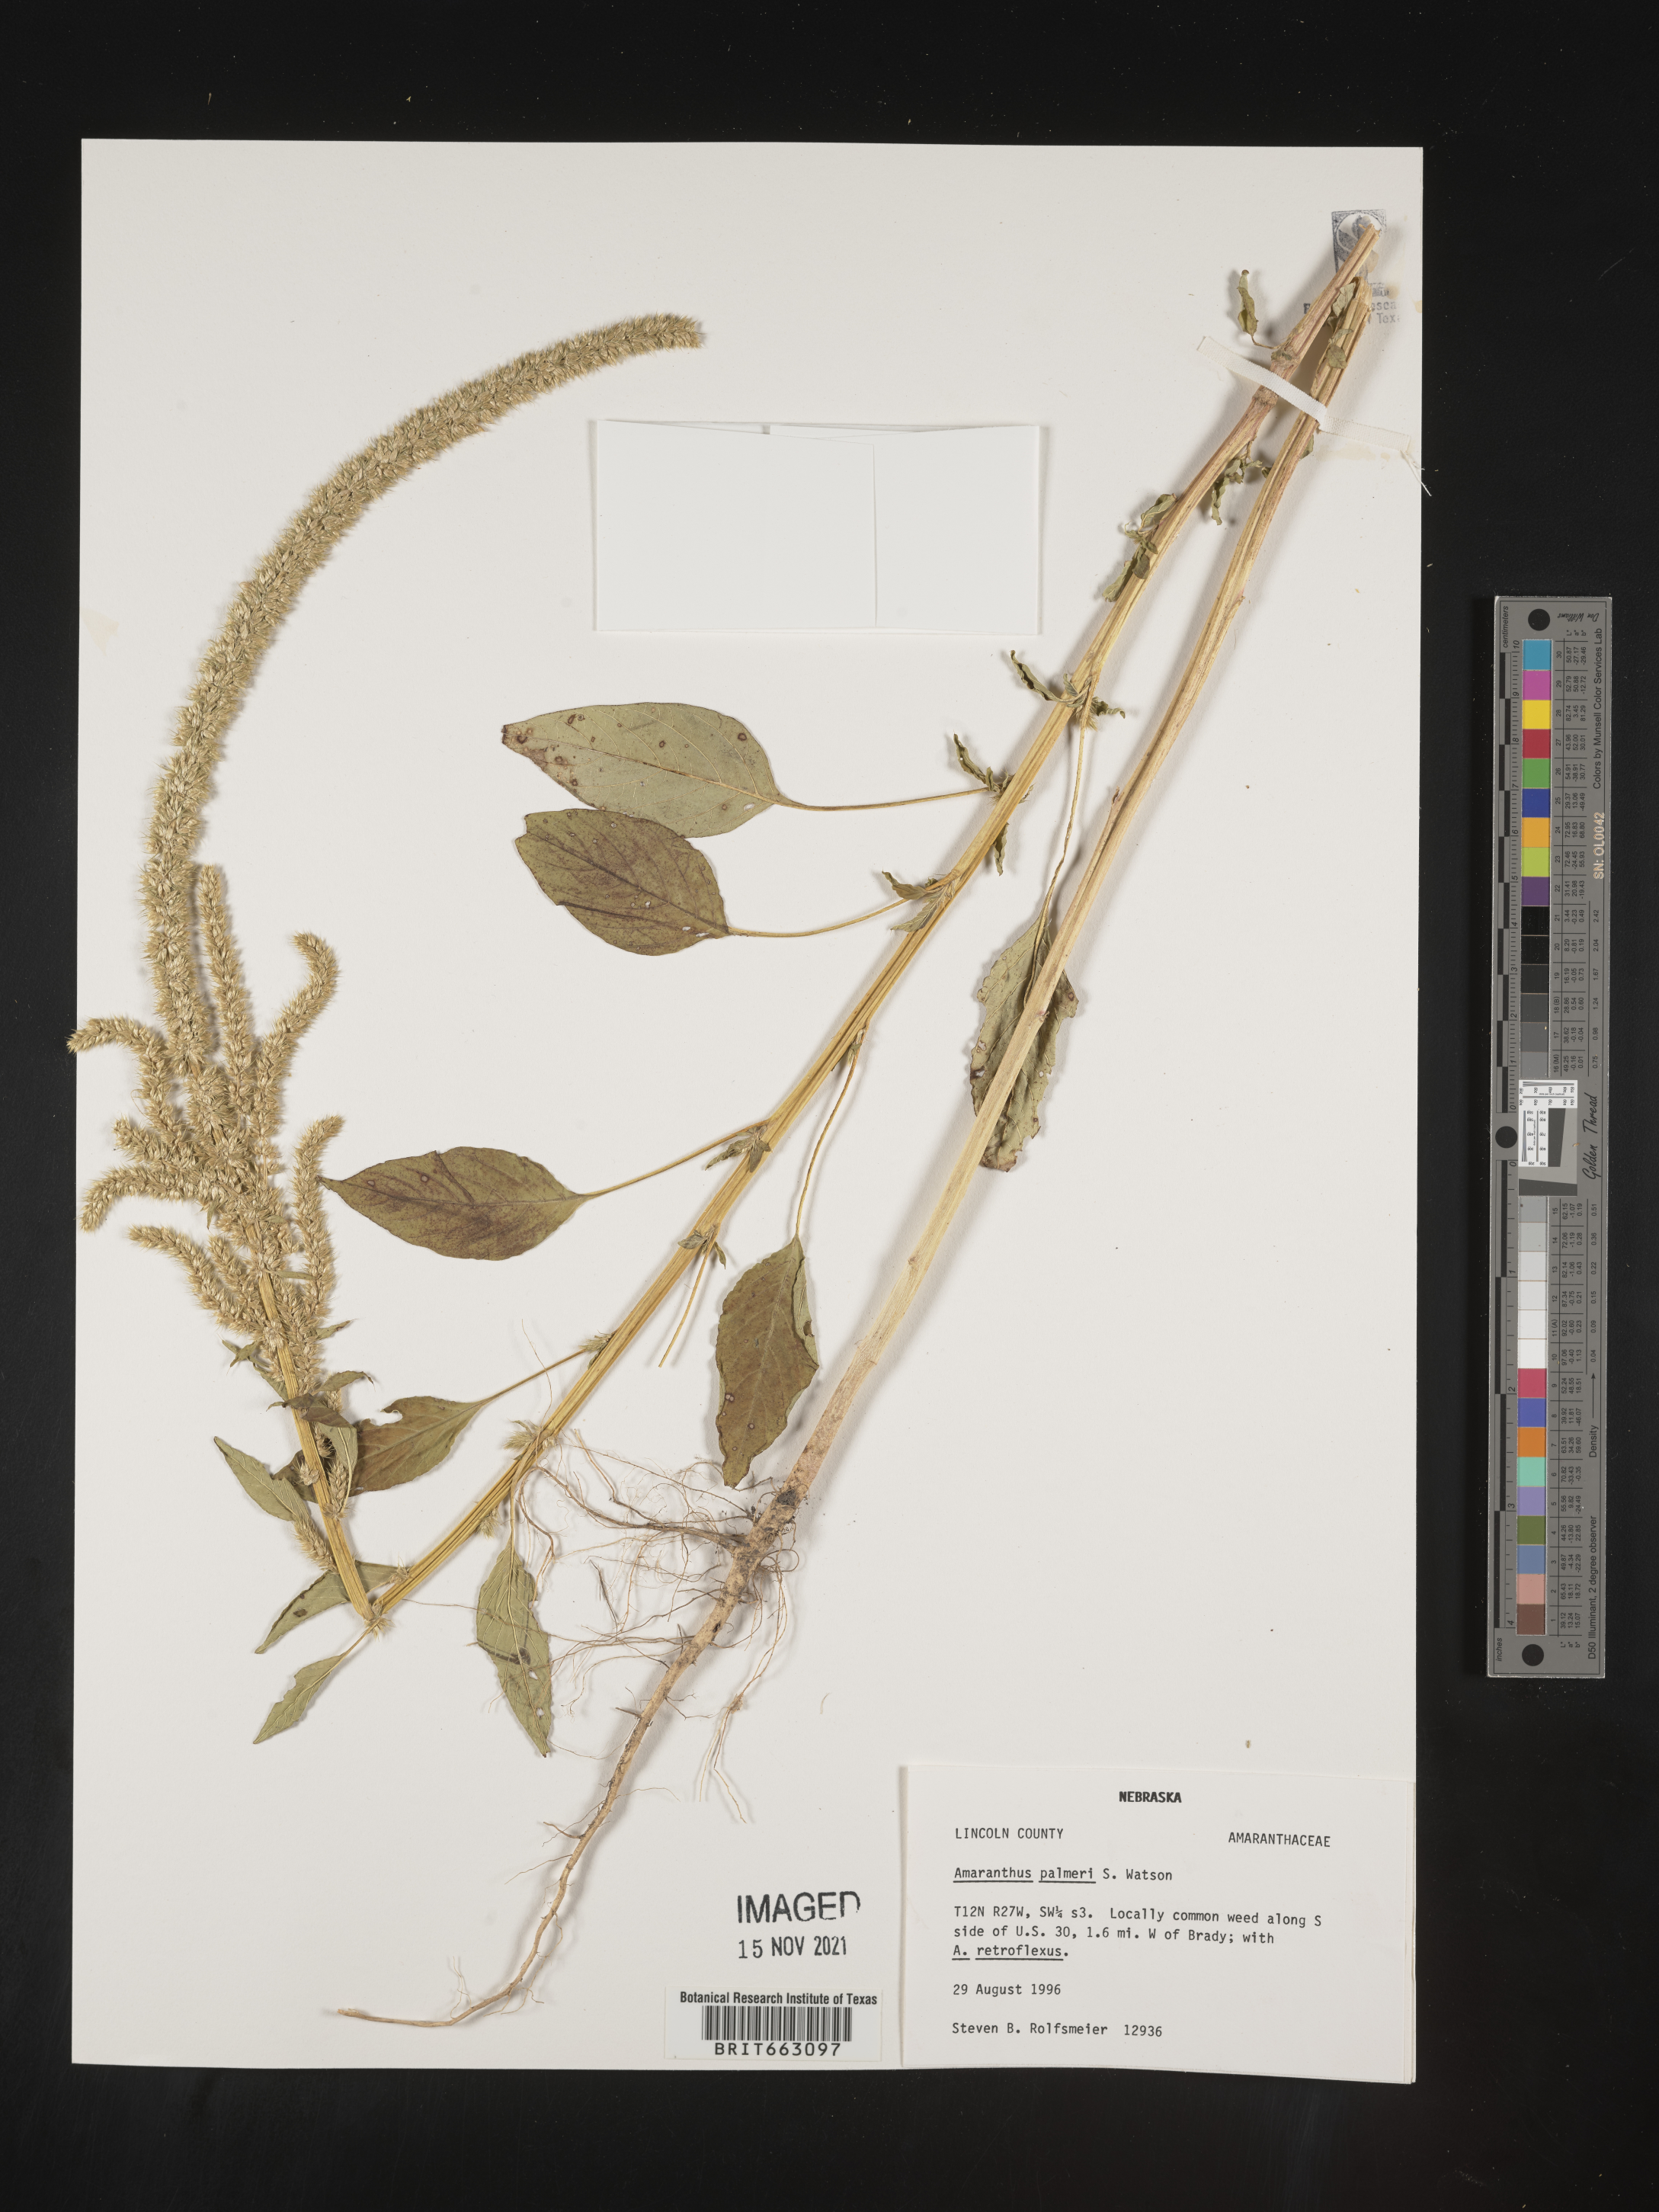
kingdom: Plantae
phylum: Tracheophyta
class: Magnoliopsida
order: Caryophyllales
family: Amaranthaceae
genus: Amaranthus
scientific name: Amaranthus palmeri
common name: Dioecious amaranth
